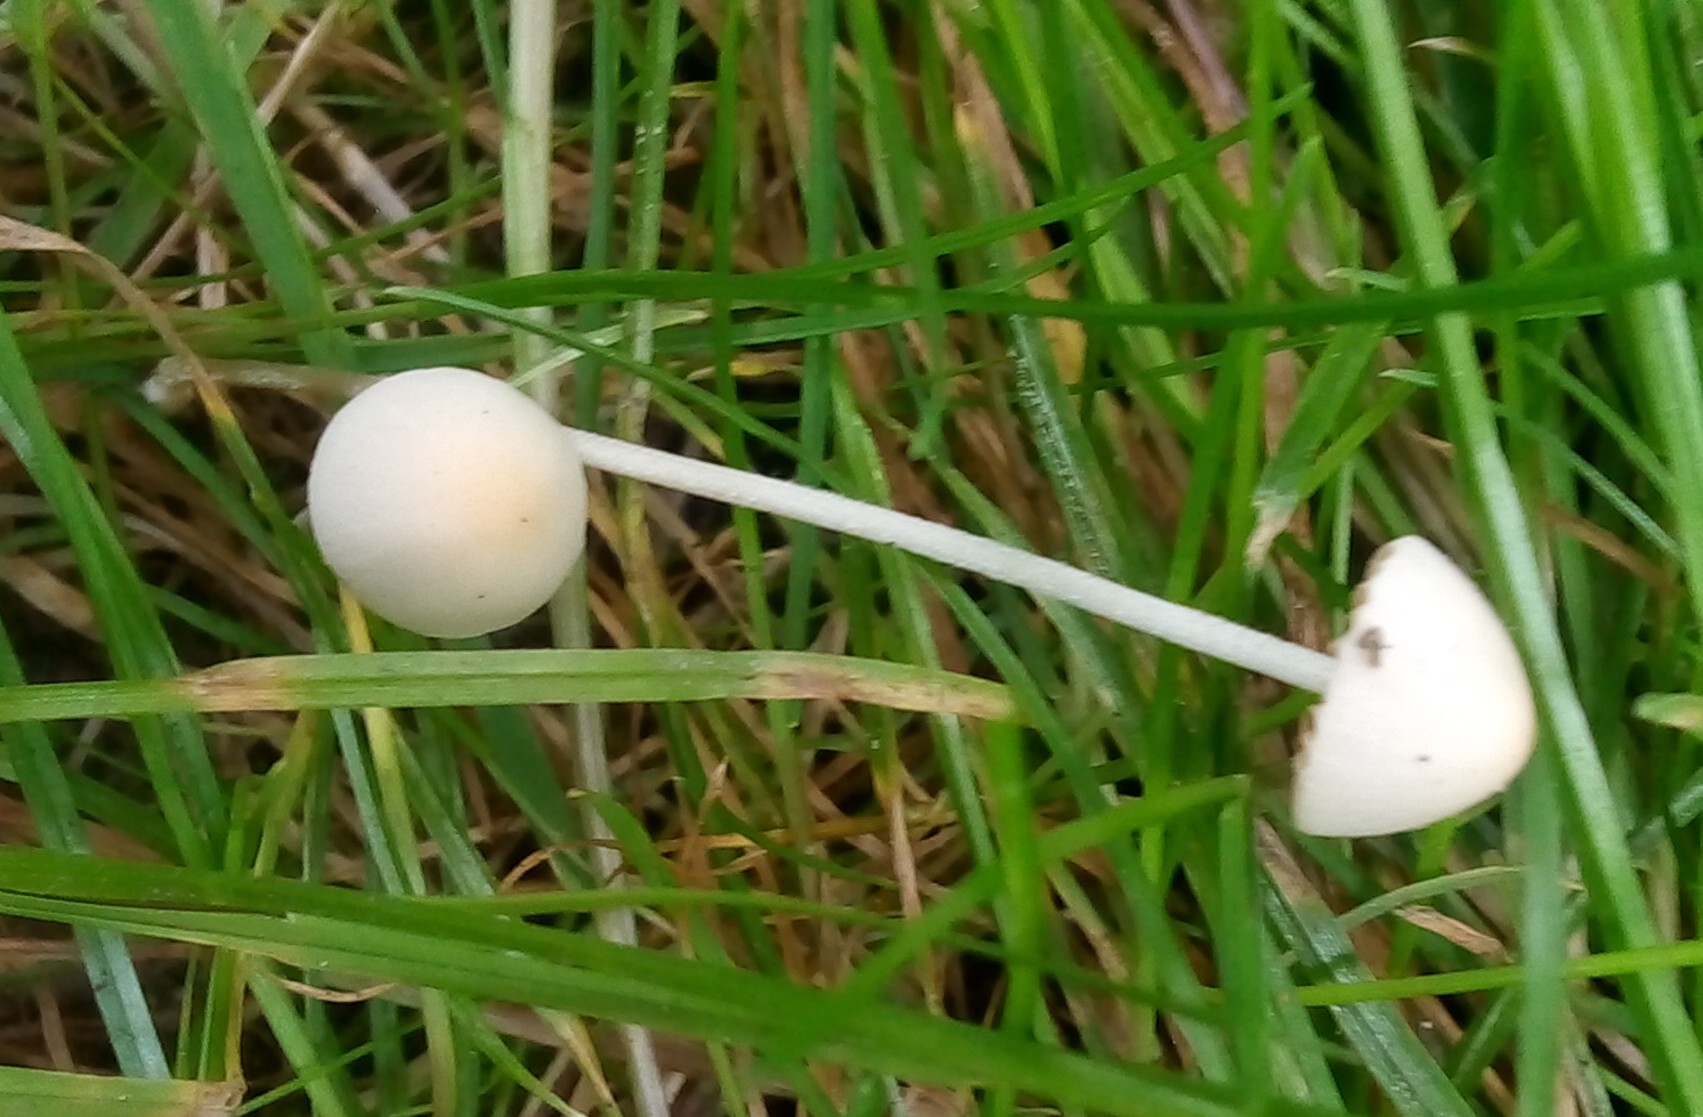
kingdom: Fungi
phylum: Basidiomycota
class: Agaricomycetes
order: Agaricales
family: Bolbitiaceae
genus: Conocybe
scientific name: Conocybe apala
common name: mælkehvid keglehat
